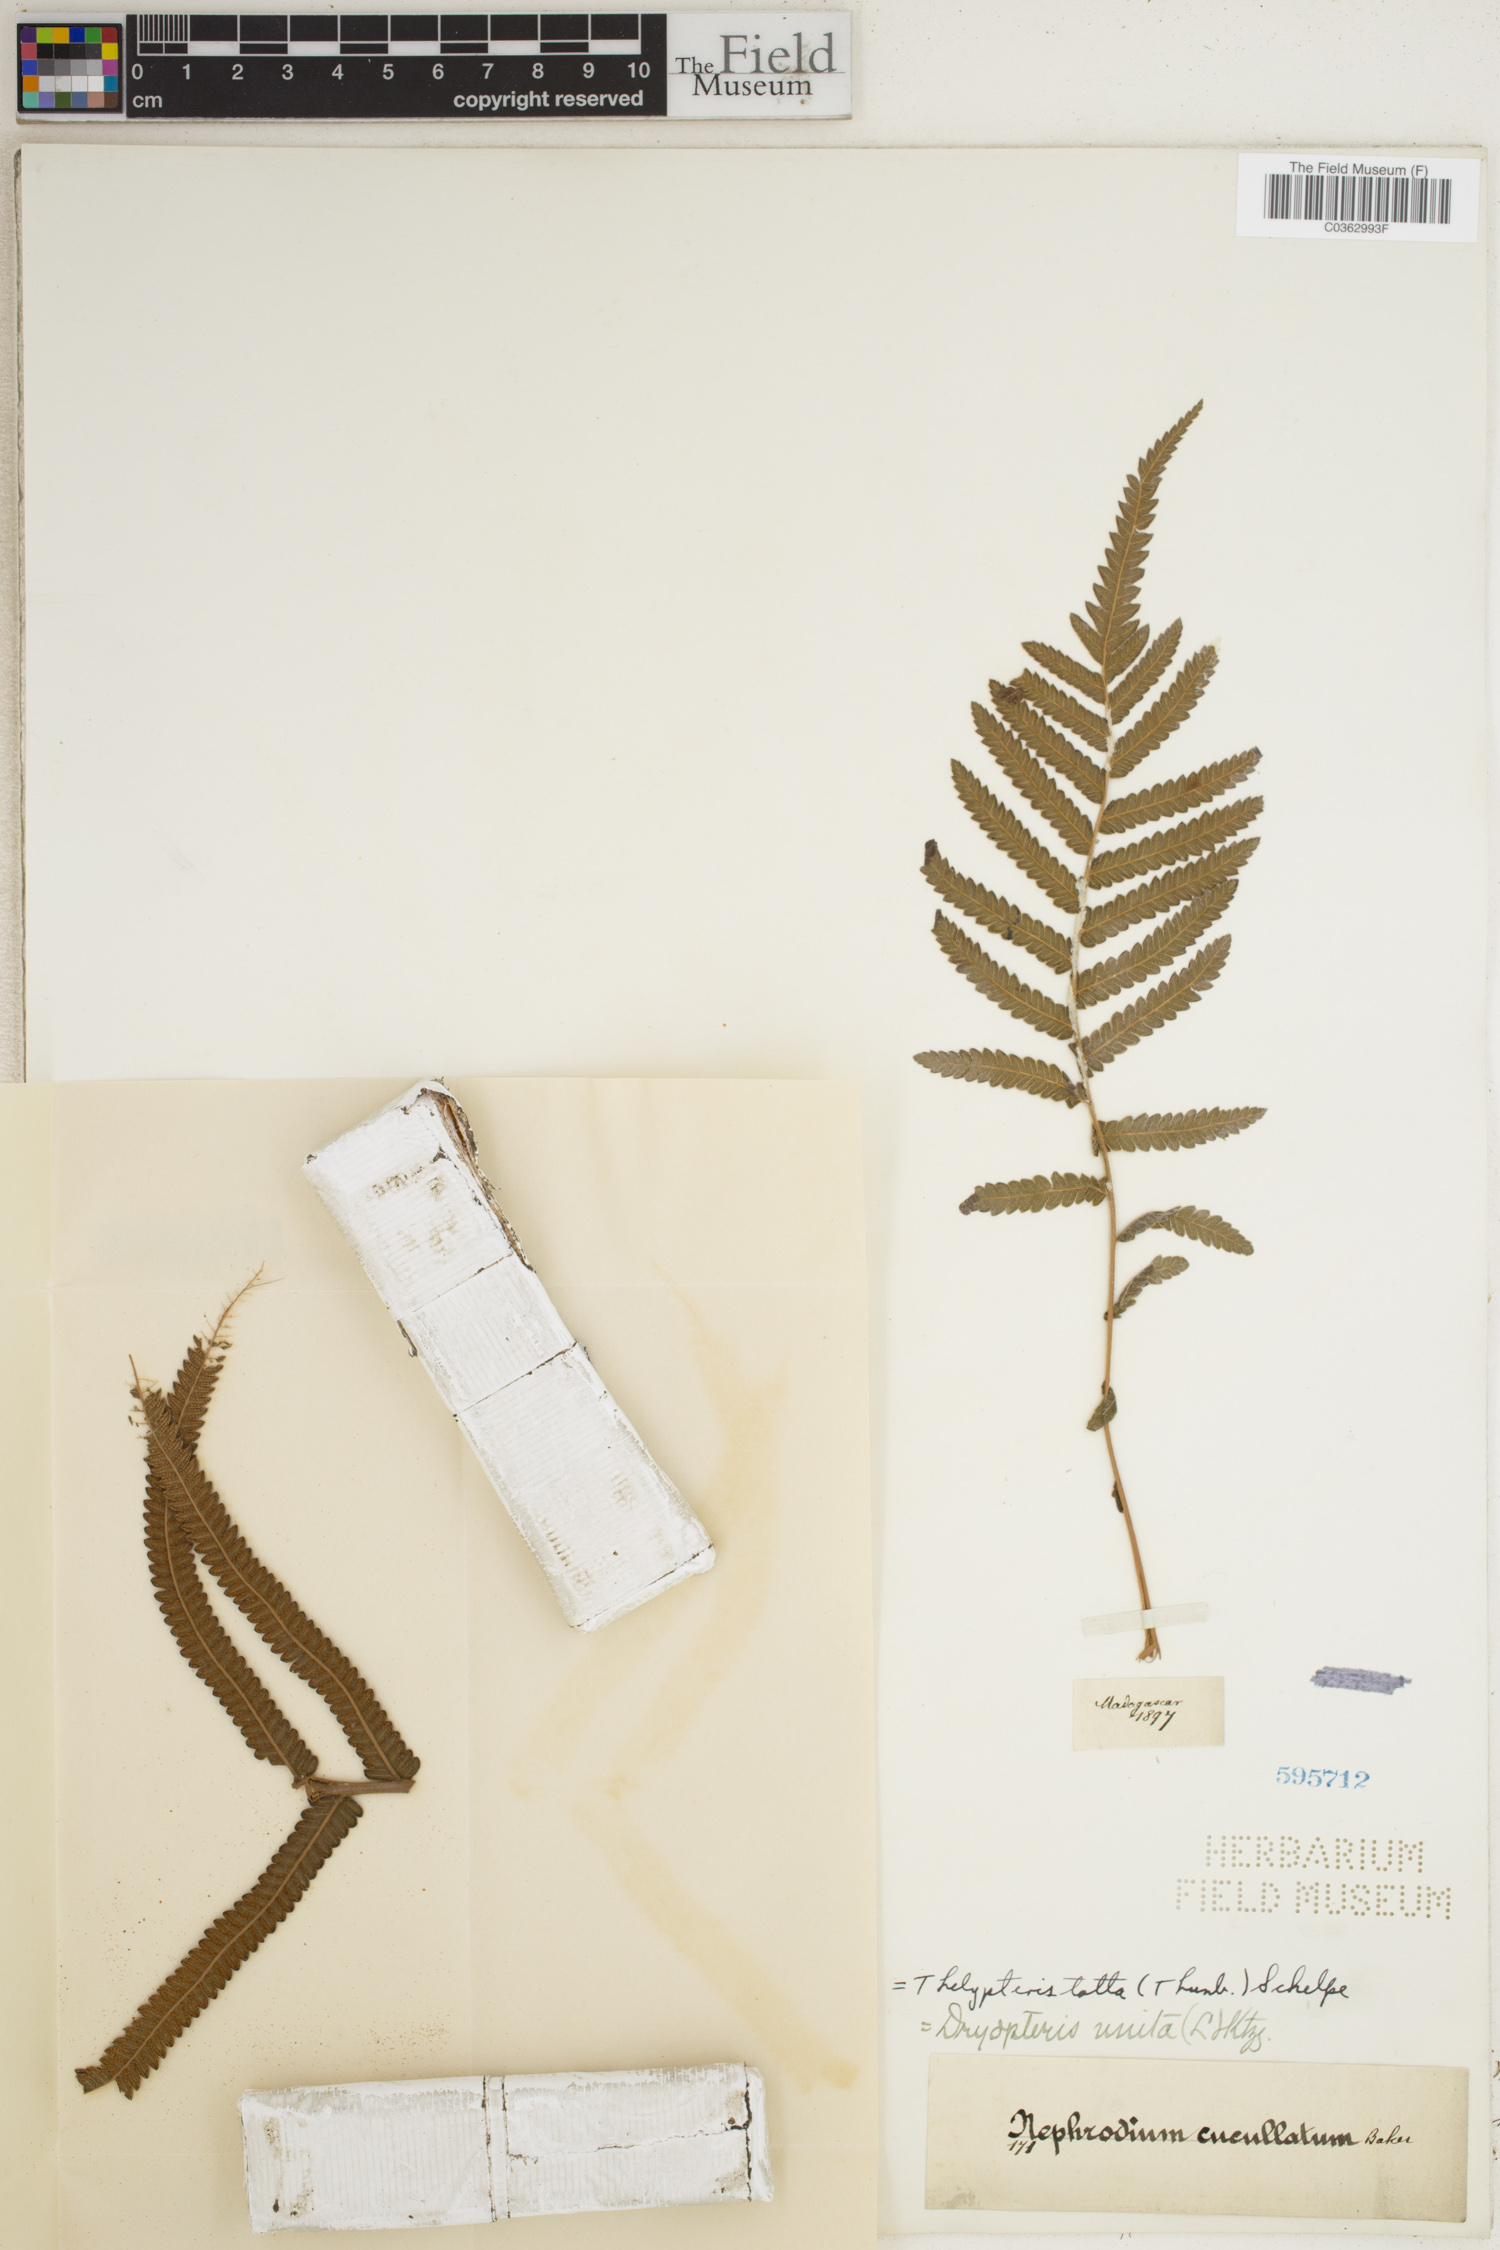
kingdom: Plantae
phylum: Tracheophyta
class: Polypodiopsida
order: Polypodiales
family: Thelypteridaceae
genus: Strophocaulon
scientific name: Strophocaulon unitum
